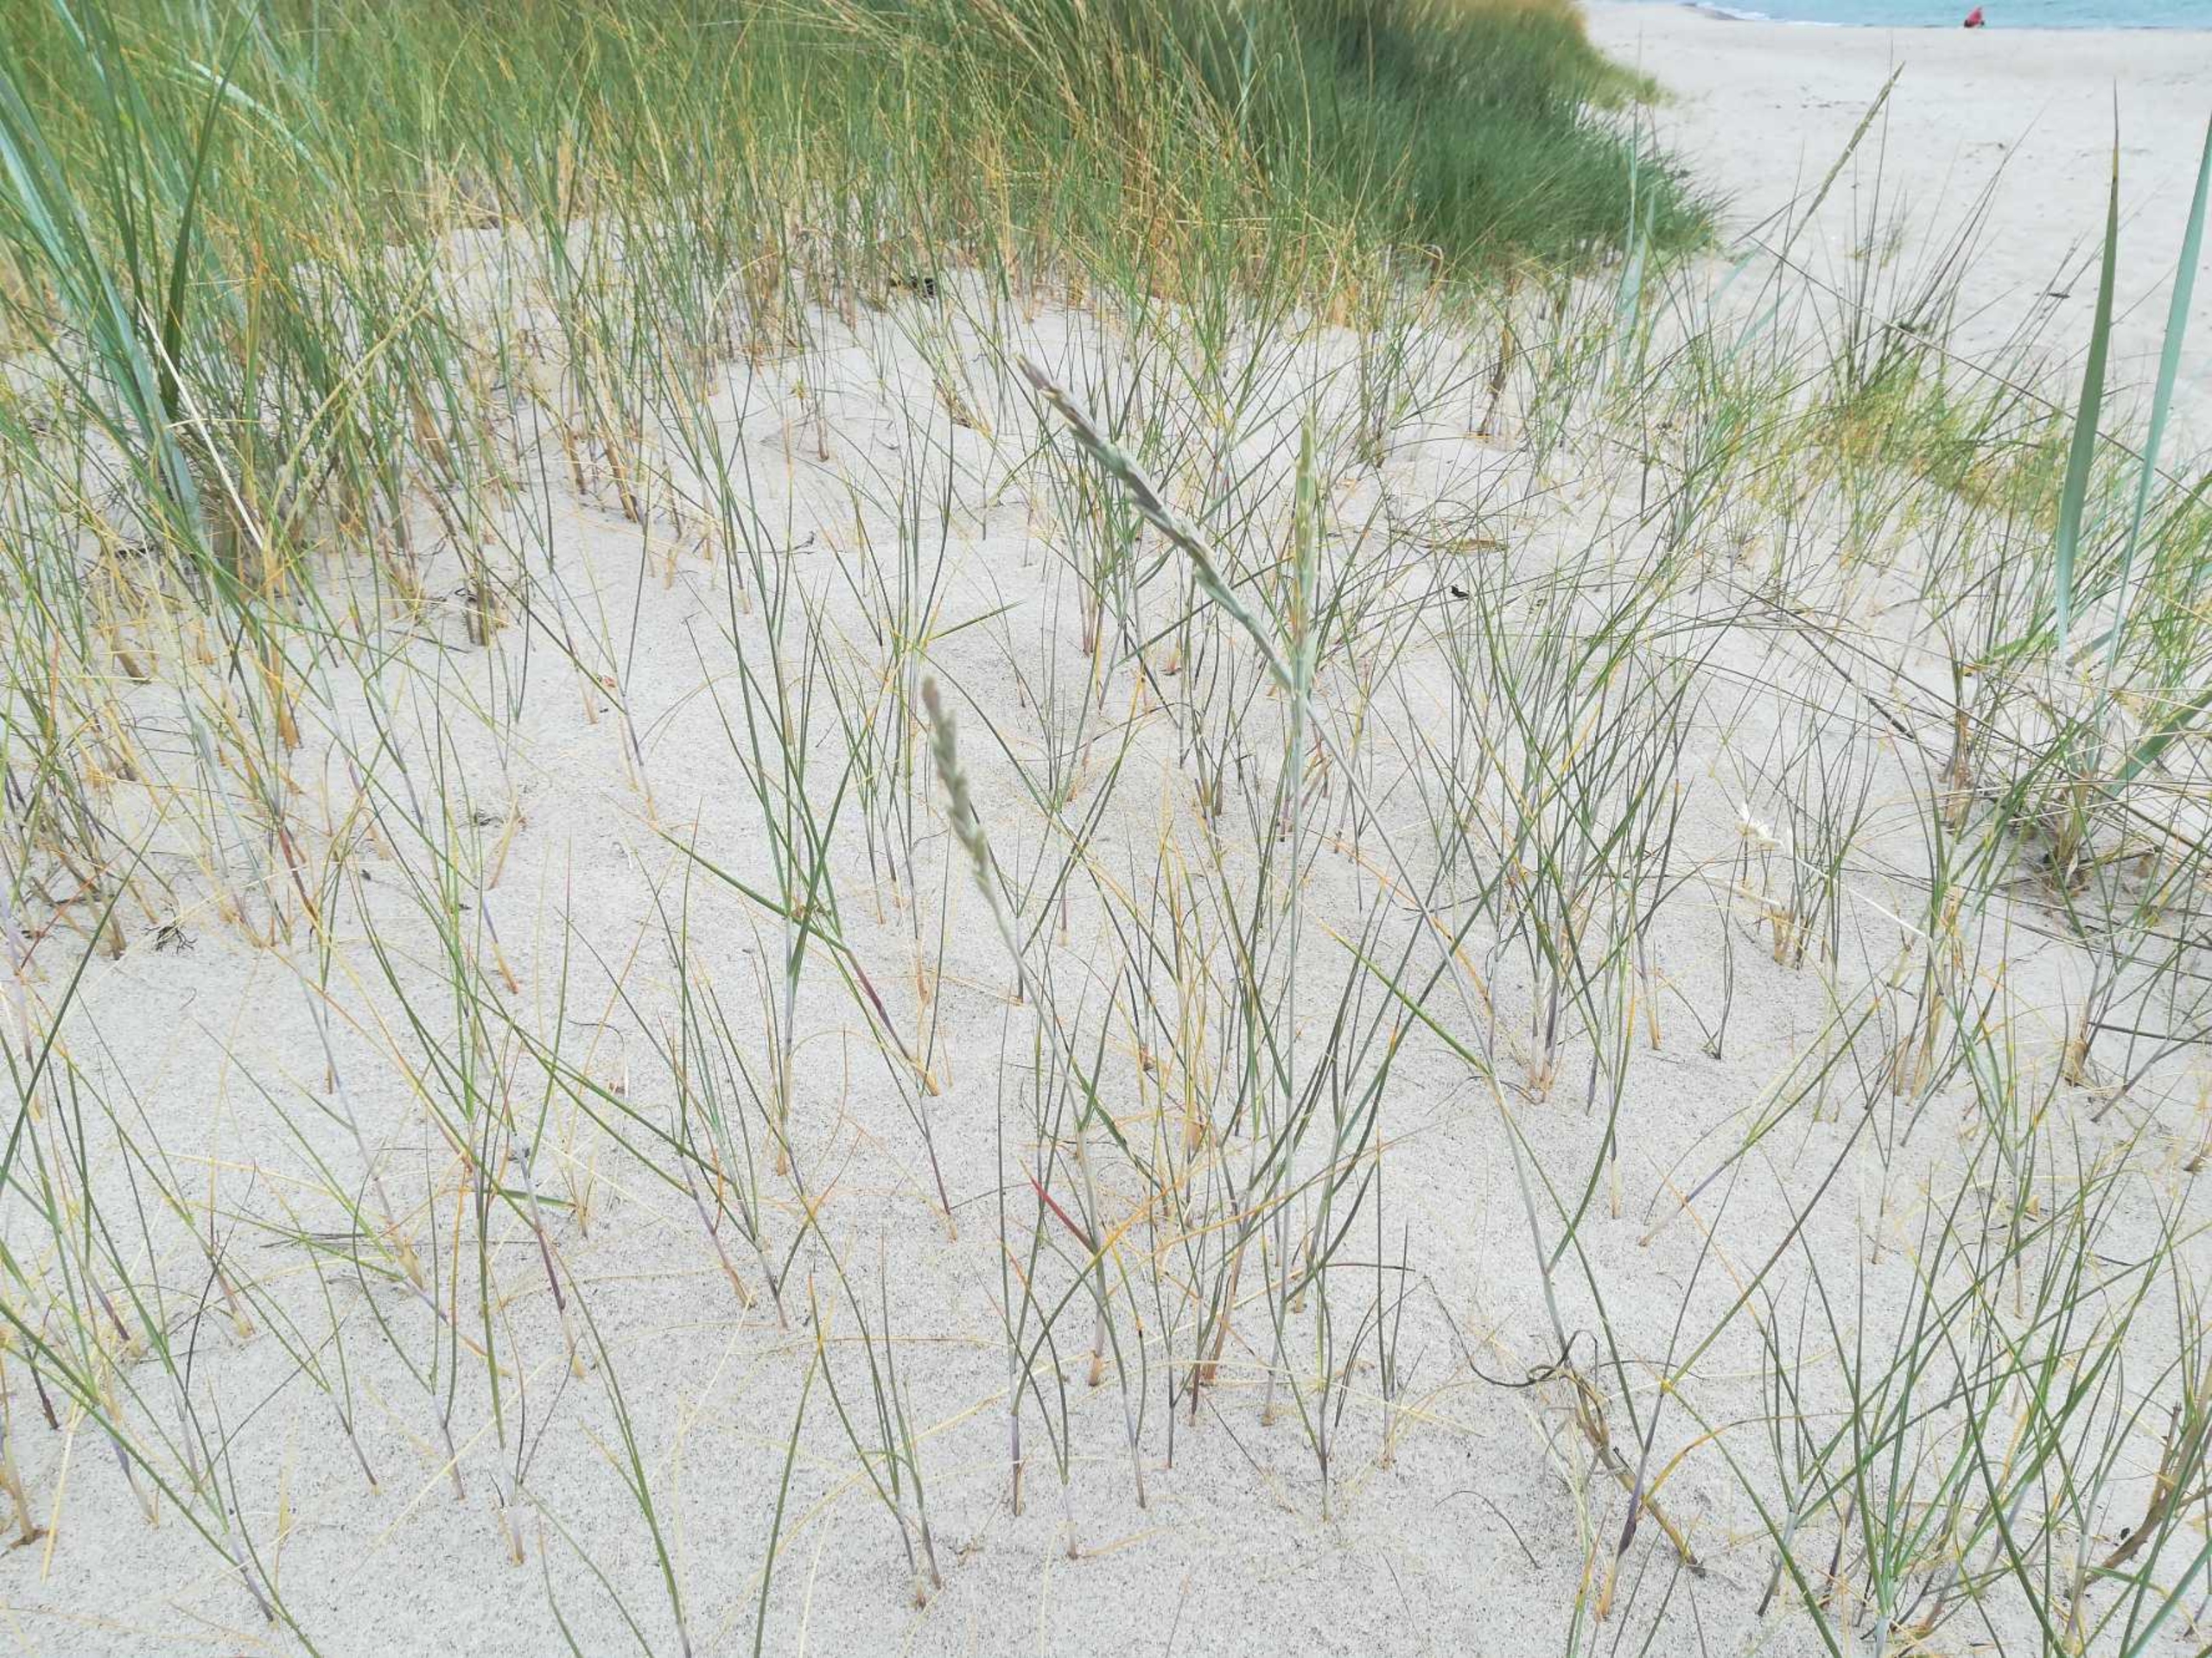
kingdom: Plantae
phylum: Tracheophyta
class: Liliopsida
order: Poales
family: Poaceae
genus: Thinopyrum
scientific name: Thinopyrum junceiforme
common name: Strand-kvik (underart)
